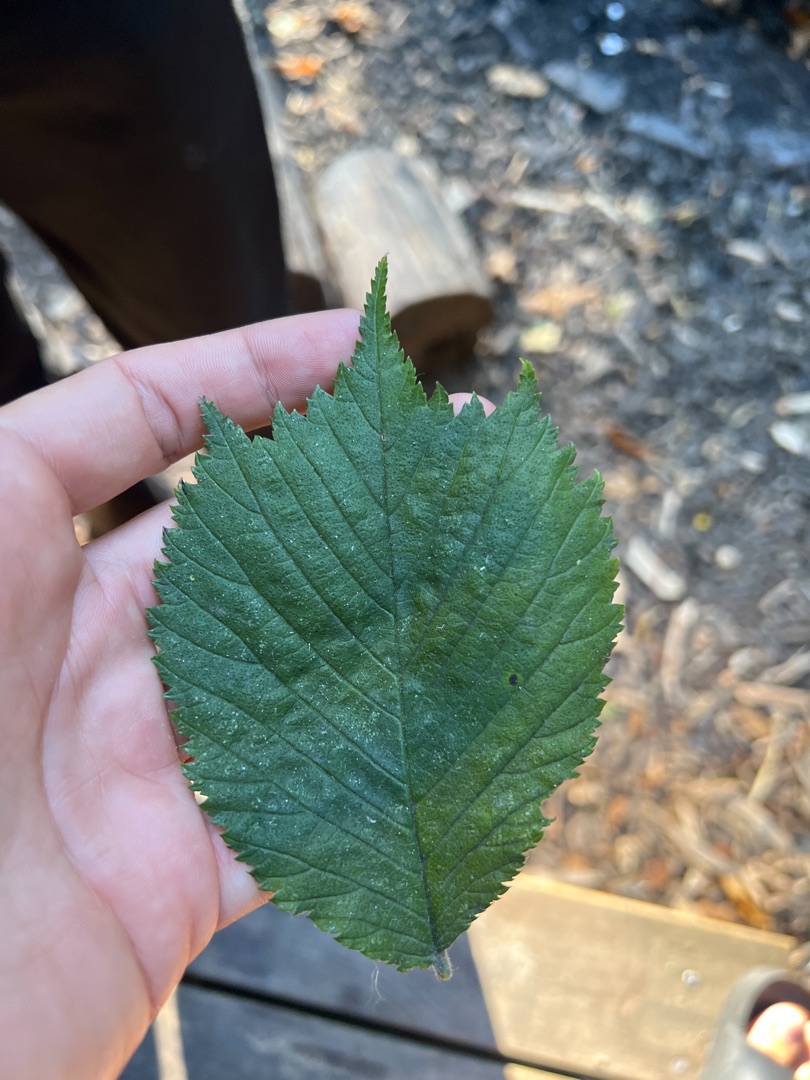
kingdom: Plantae
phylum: Tracheophyta
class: Magnoliopsida
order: Rosales
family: Ulmaceae
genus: Ulmus
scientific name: Ulmus glabra
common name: Skov-elm/storbladet elm
